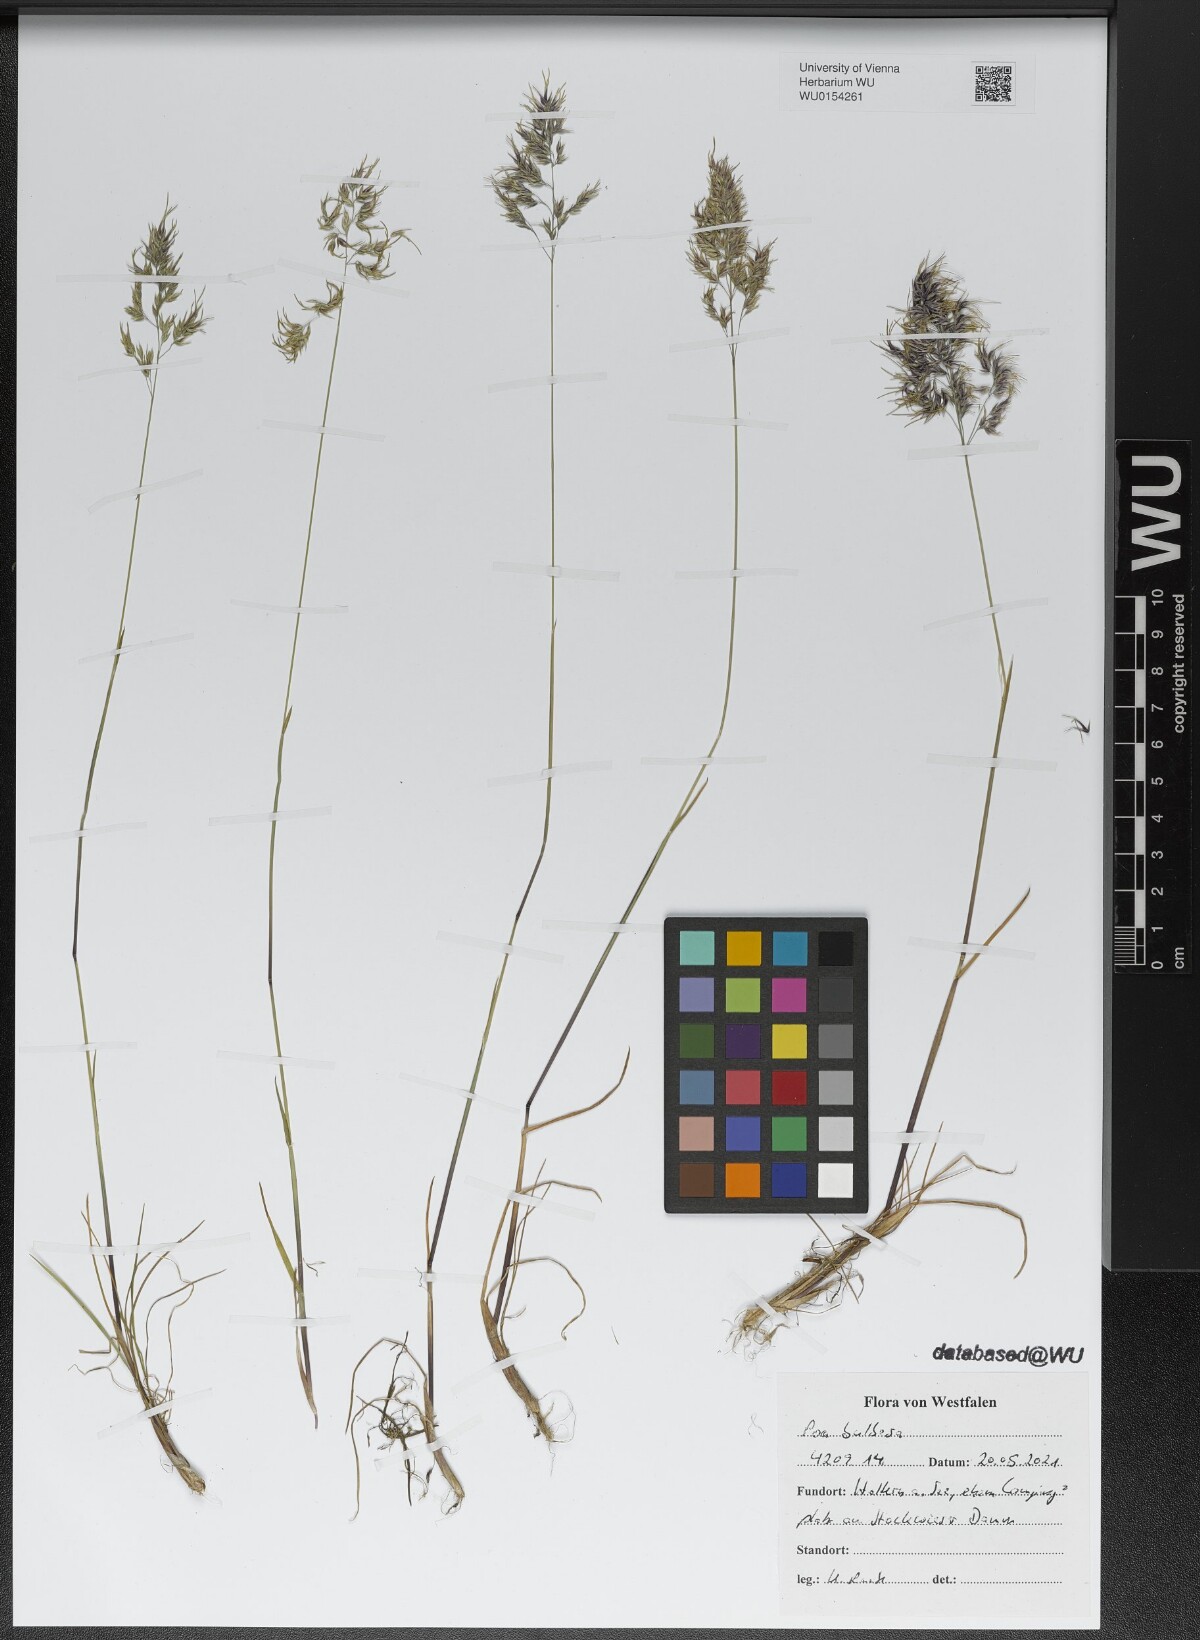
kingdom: Plantae
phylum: Tracheophyta
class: Liliopsida
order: Poales
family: Poaceae
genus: Poa
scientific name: Poa bulbosa
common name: Bulbous bluegrass
